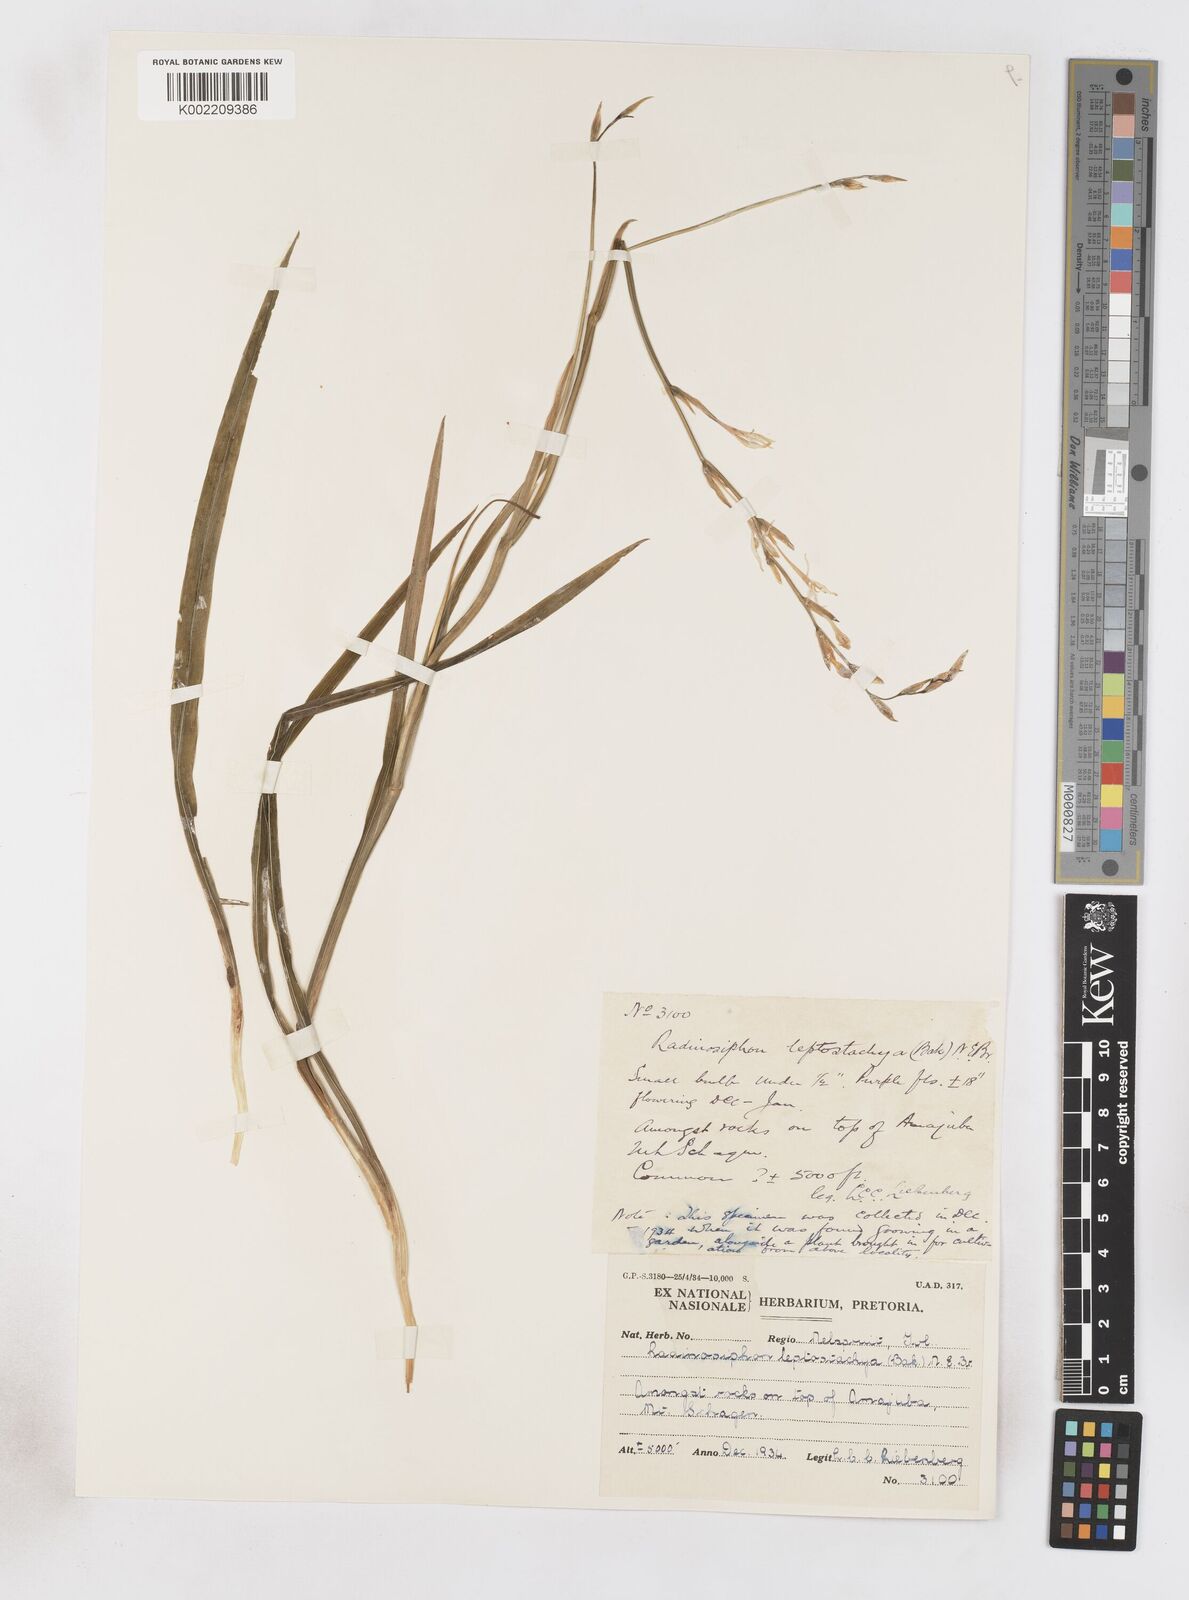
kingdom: Plantae
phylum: Tracheophyta
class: Liliopsida
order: Asparagales
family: Iridaceae
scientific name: Iridaceae
